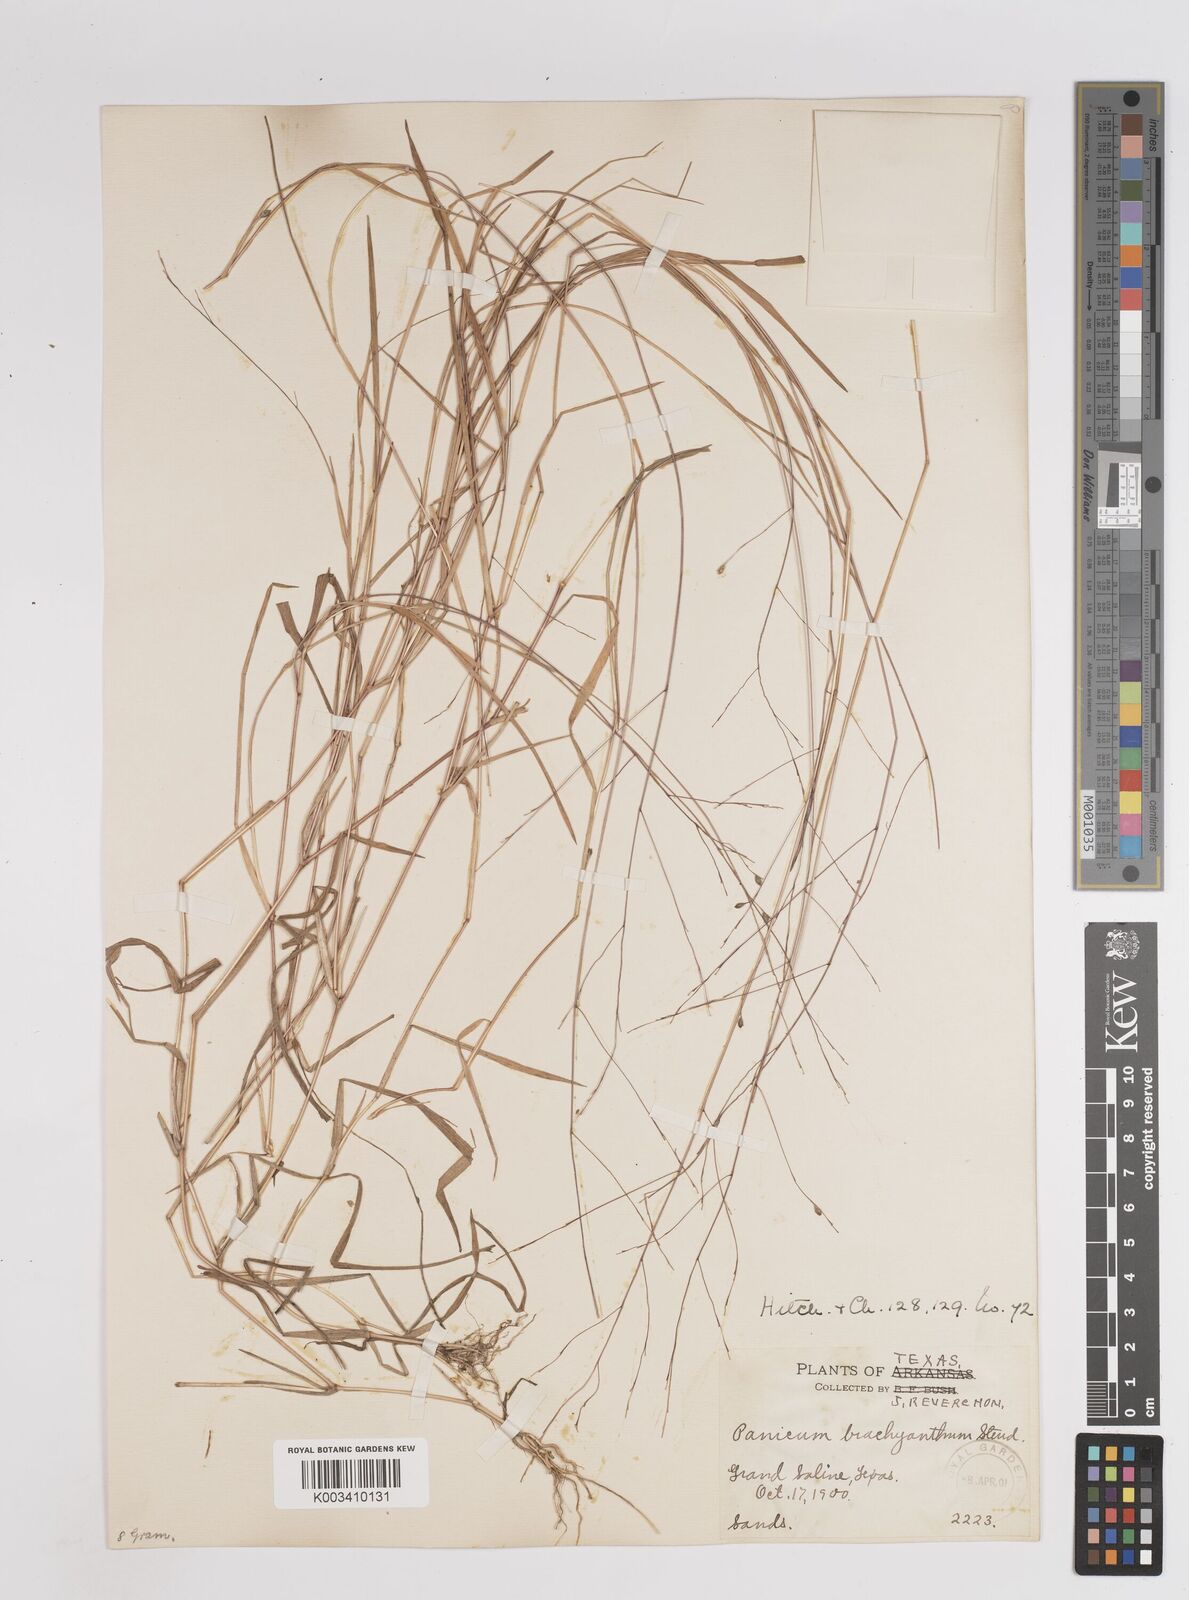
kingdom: Plantae
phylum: Tracheophyta
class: Liliopsida
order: Poales
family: Poaceae
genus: Kellochloa
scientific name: Kellochloa brachyantha
